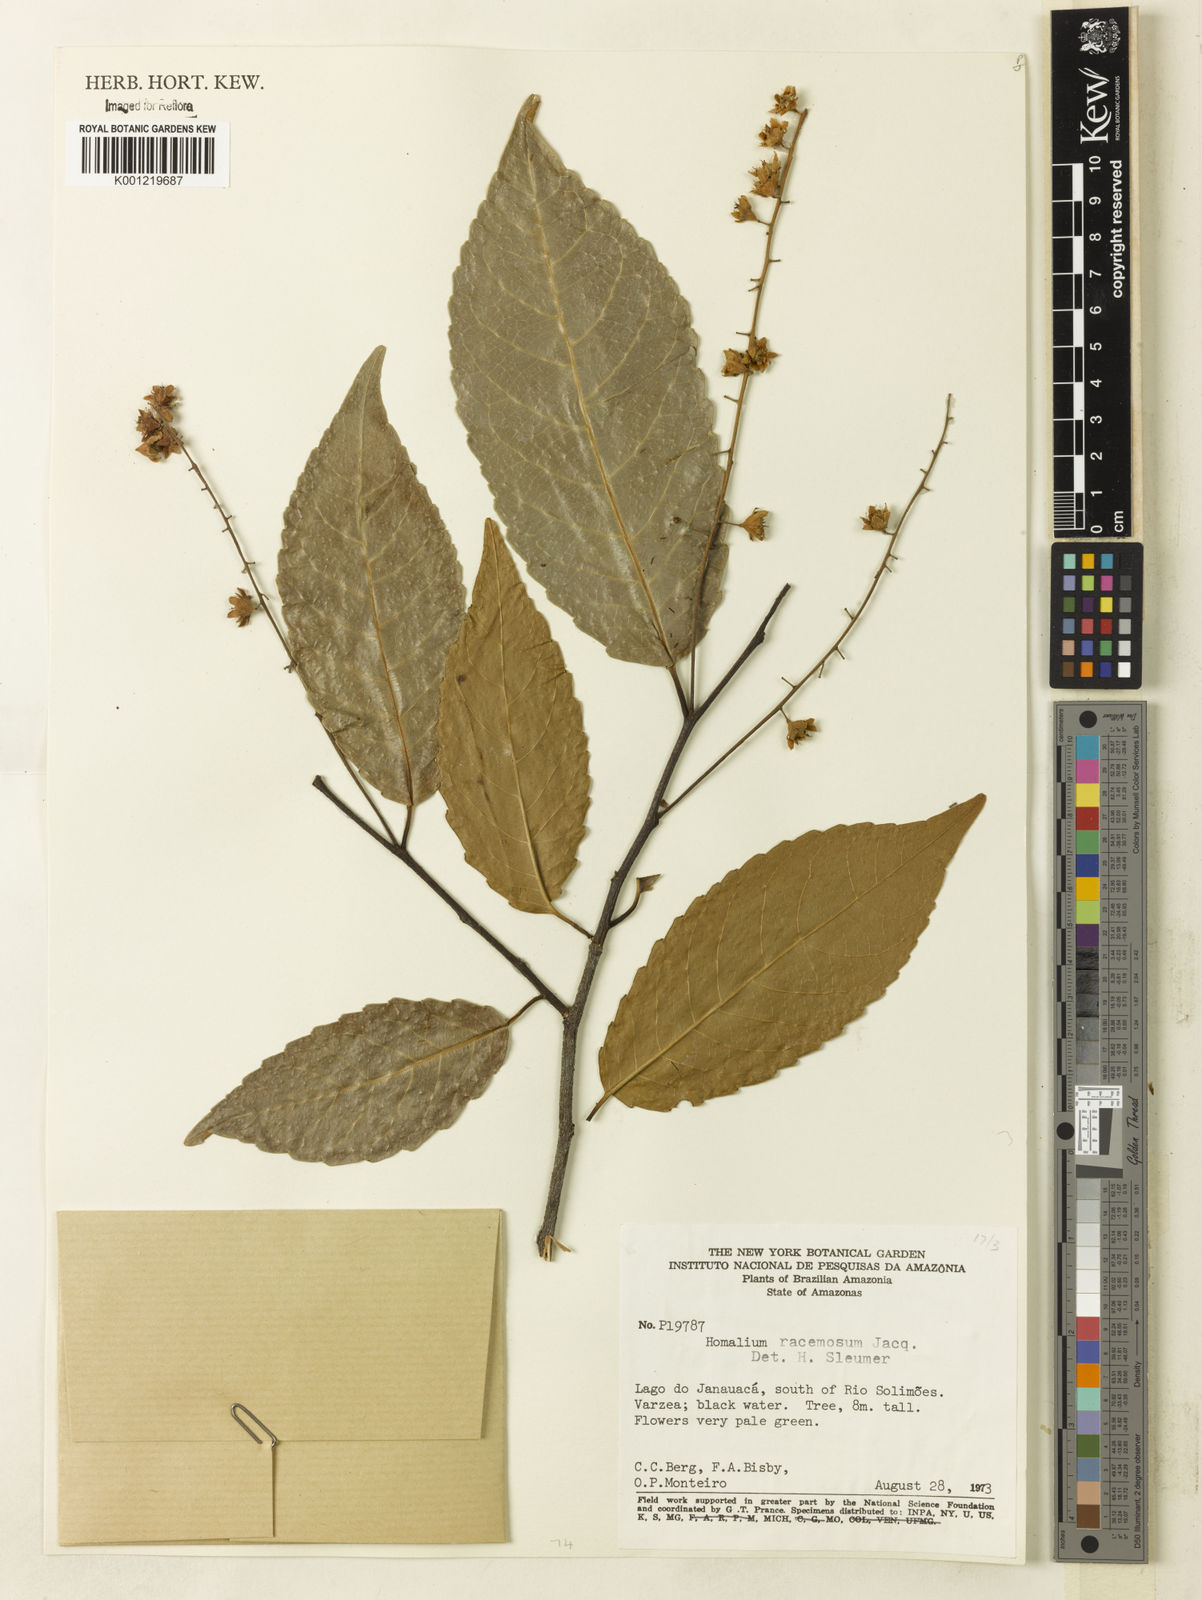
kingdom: Plantae
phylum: Tracheophyta
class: Magnoliopsida
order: Malpighiales
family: Salicaceae
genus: Homalium
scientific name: Homalium racemosum
